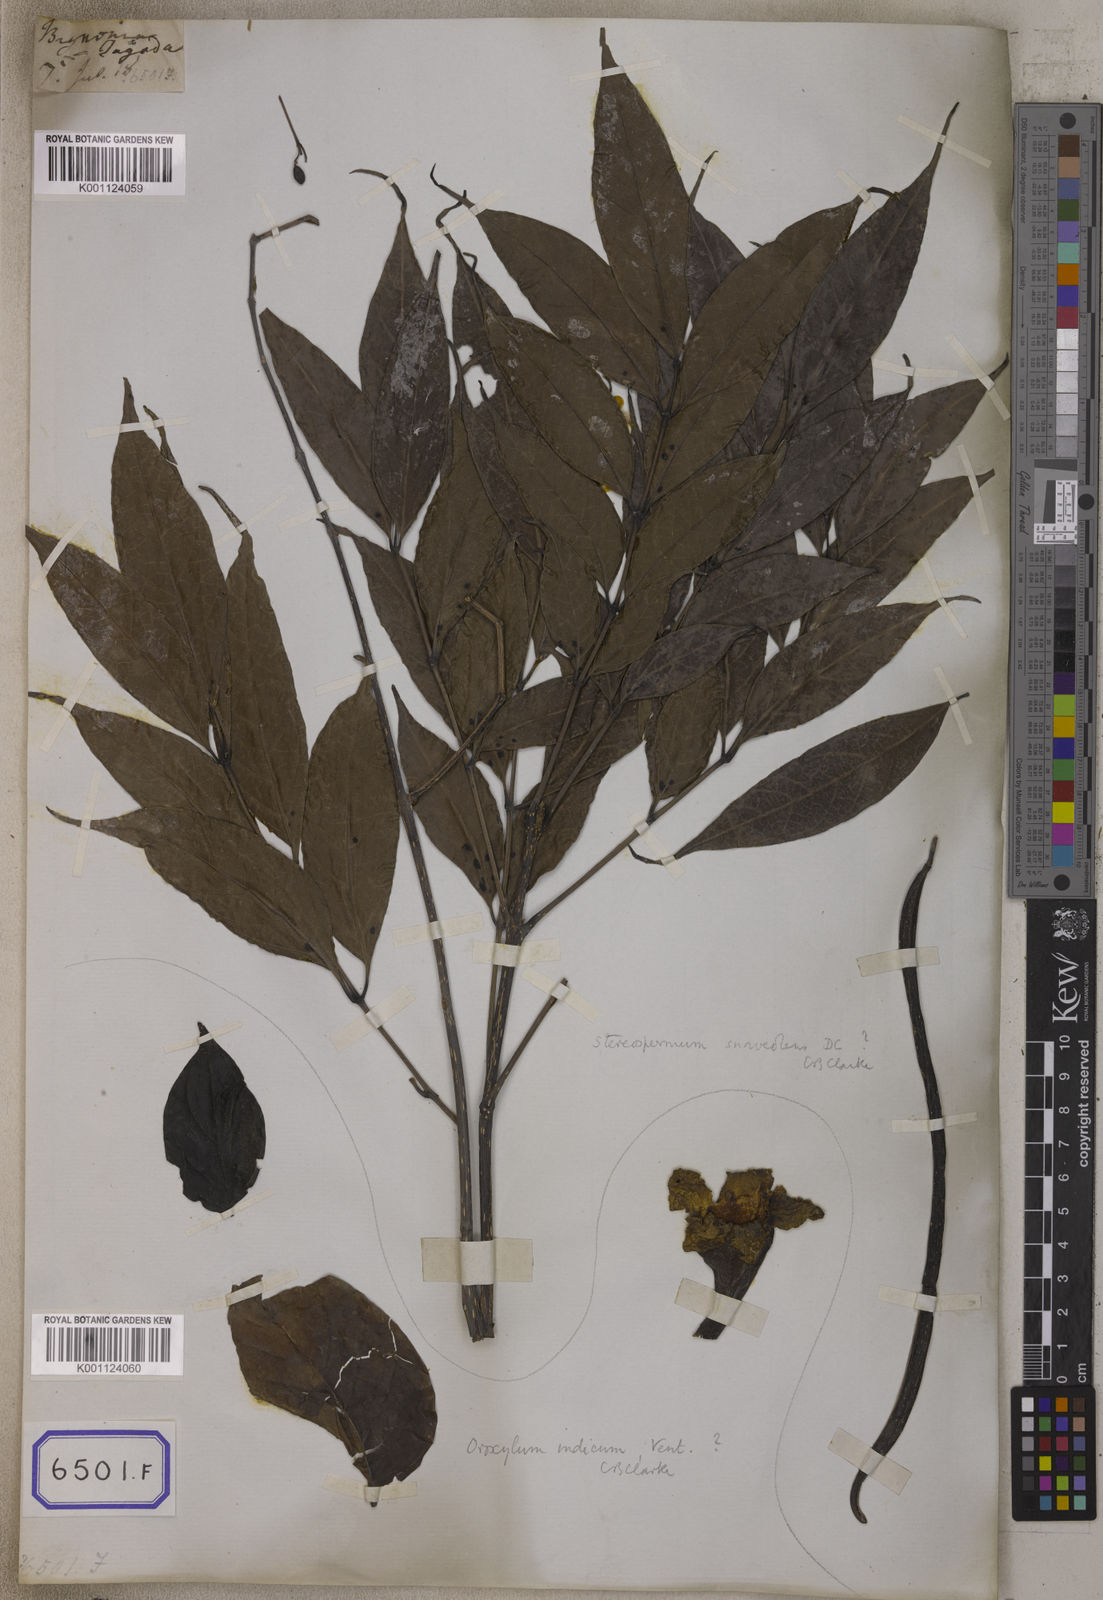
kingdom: Plantae
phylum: Tracheophyta
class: Magnoliopsida
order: Lamiales
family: Bignoniaceae
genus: Stereospermum
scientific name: Stereospermum chelonoides
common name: Fragrant padritree
